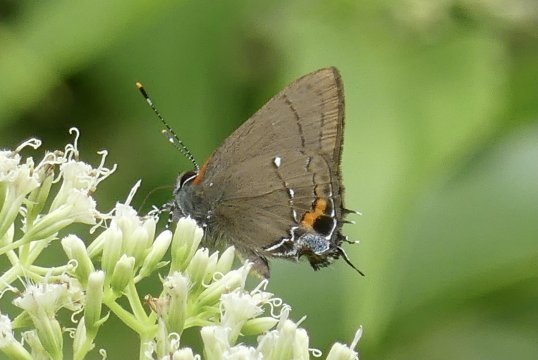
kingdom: Animalia
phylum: Arthropoda
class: Insecta
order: Lepidoptera
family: Lycaenidae
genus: Thecla
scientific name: Thecla angelia
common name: Fulvous Hairstreak
